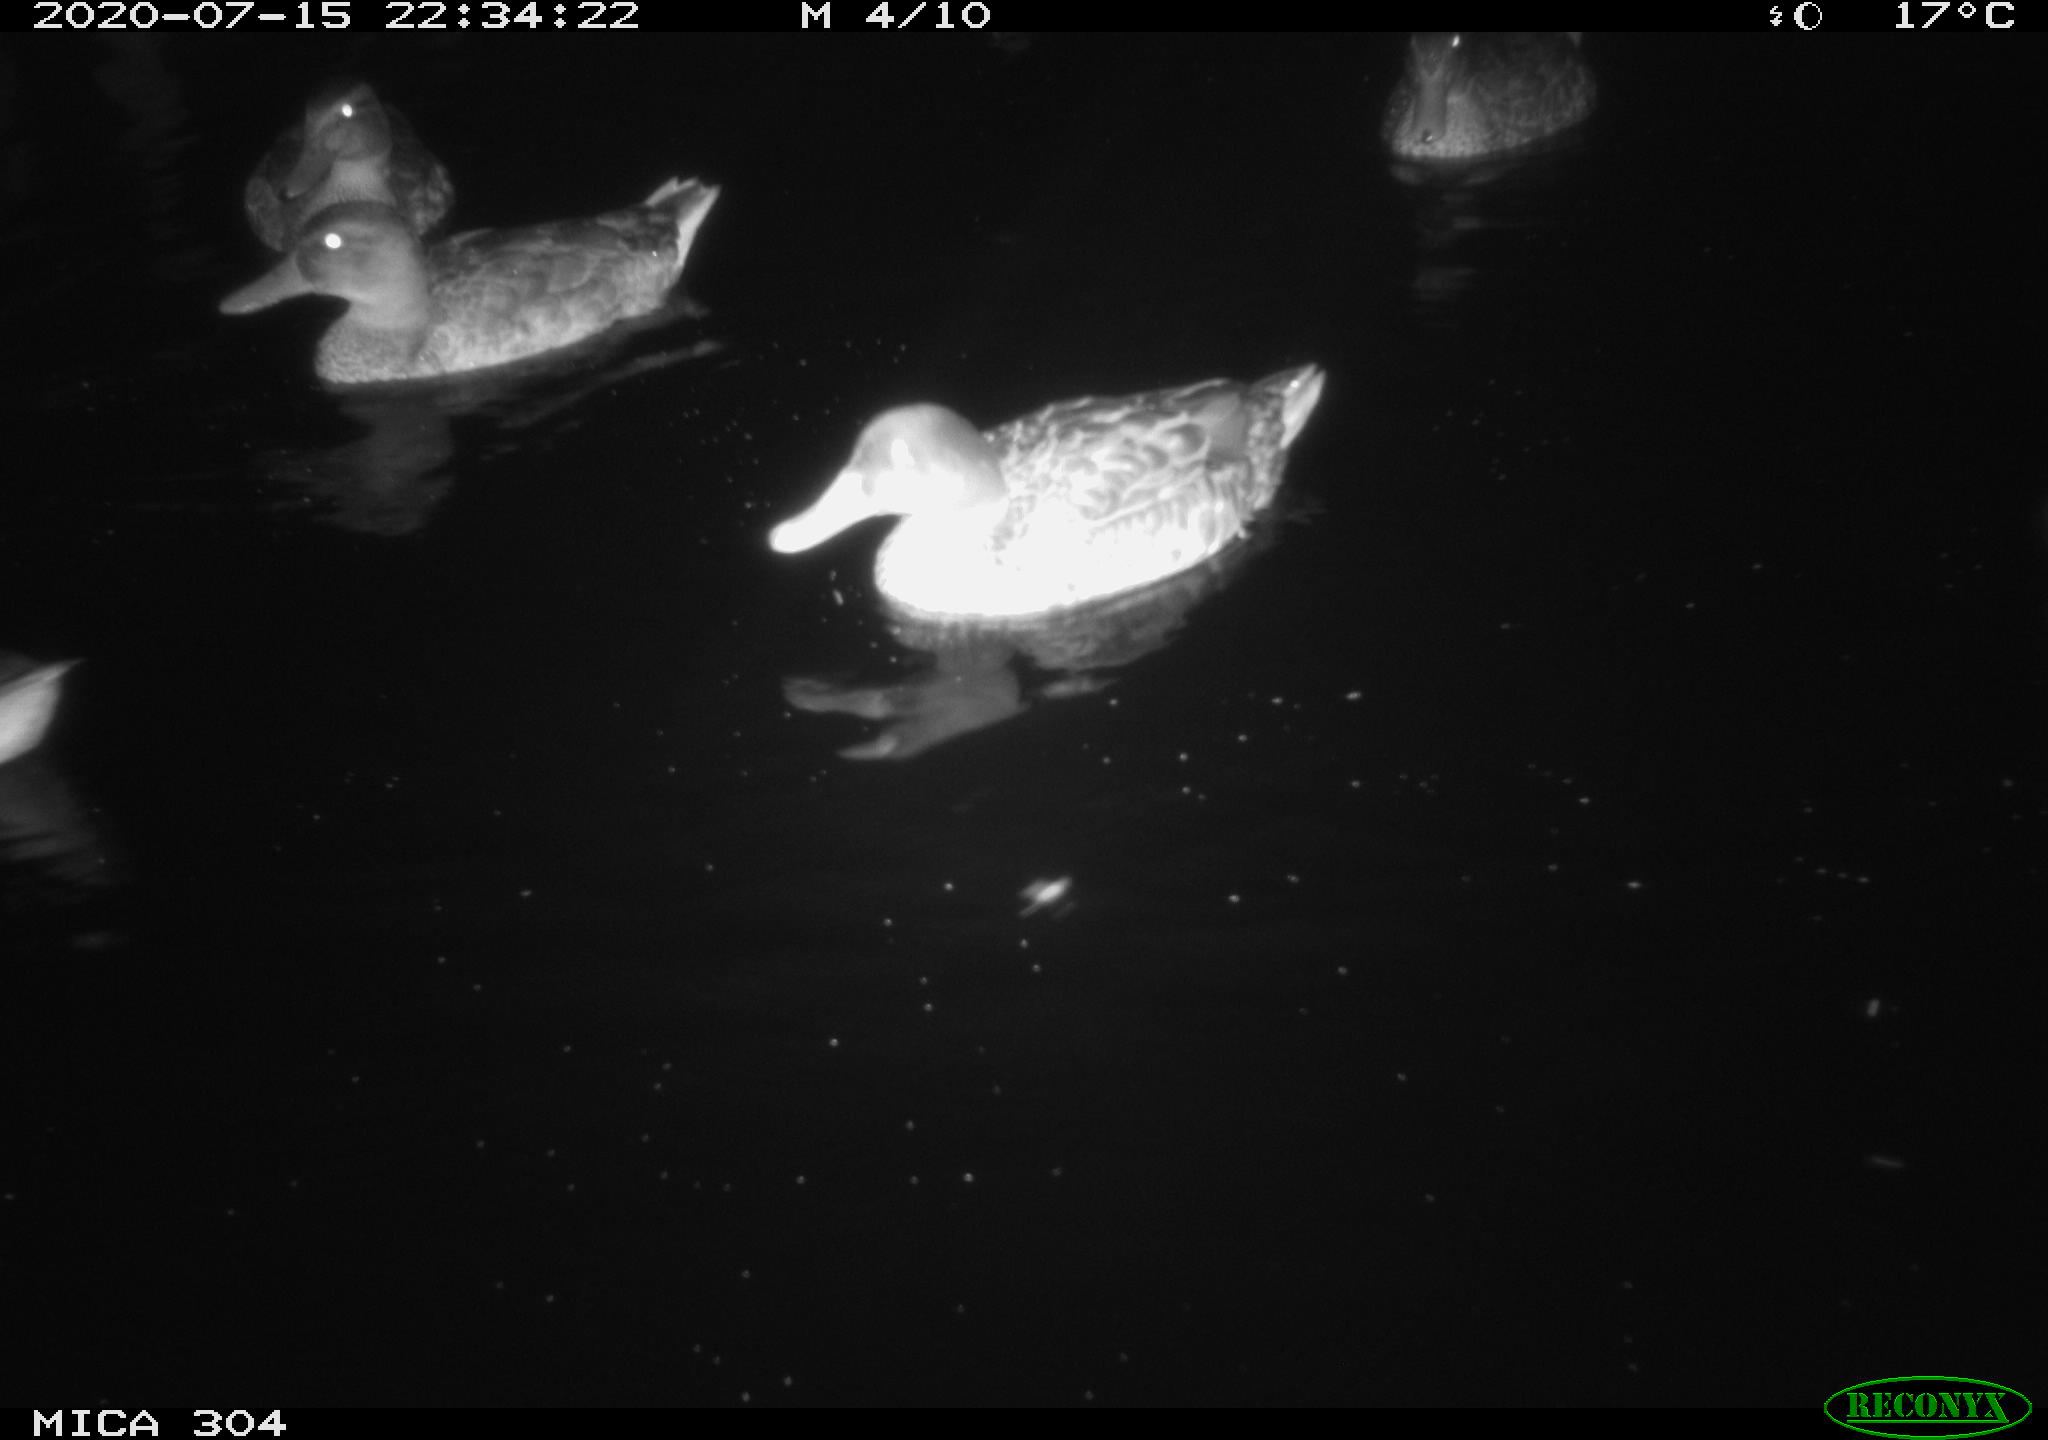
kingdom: Animalia
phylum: Chordata
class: Aves
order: Anseriformes
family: Anatidae
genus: Anas
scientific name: Anas platyrhynchos
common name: Mallard
